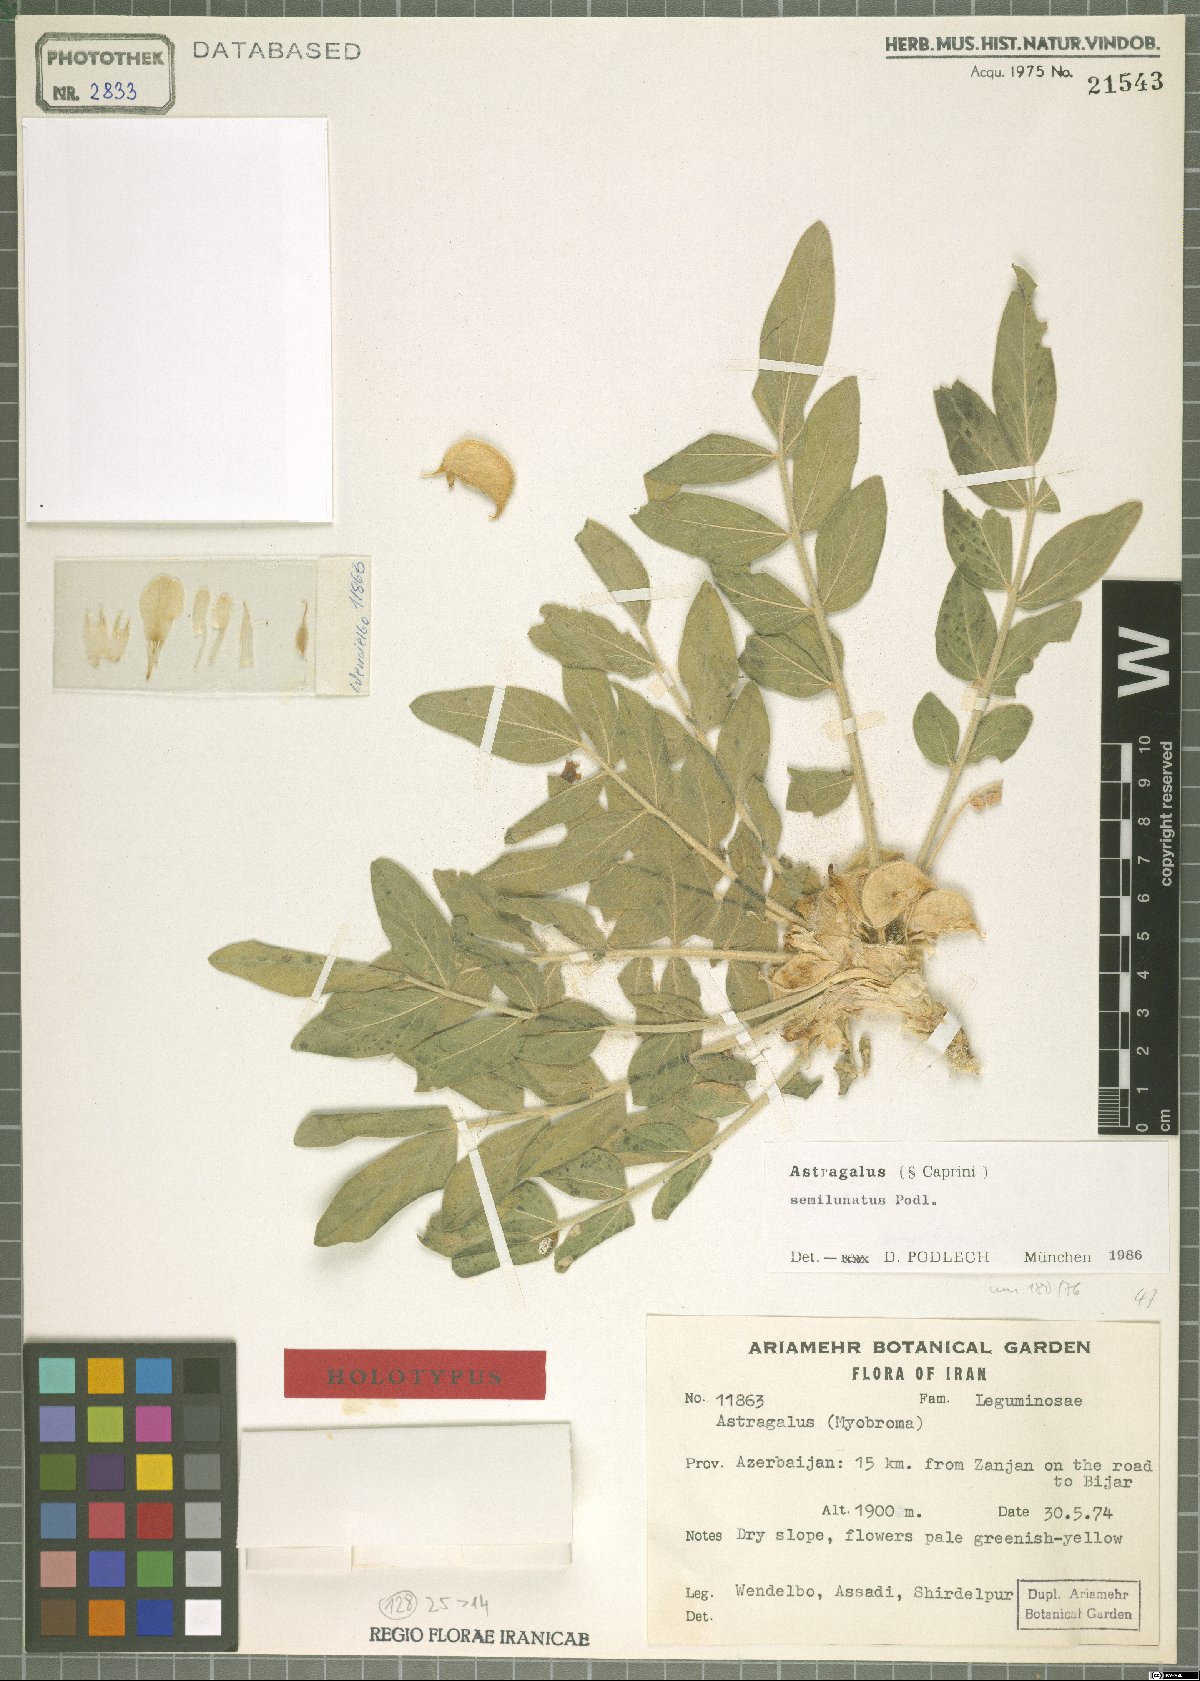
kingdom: Plantae
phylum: Tracheophyta
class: Magnoliopsida
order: Fabales
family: Fabaceae
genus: Astragalus
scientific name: Astragalus semilunatus
